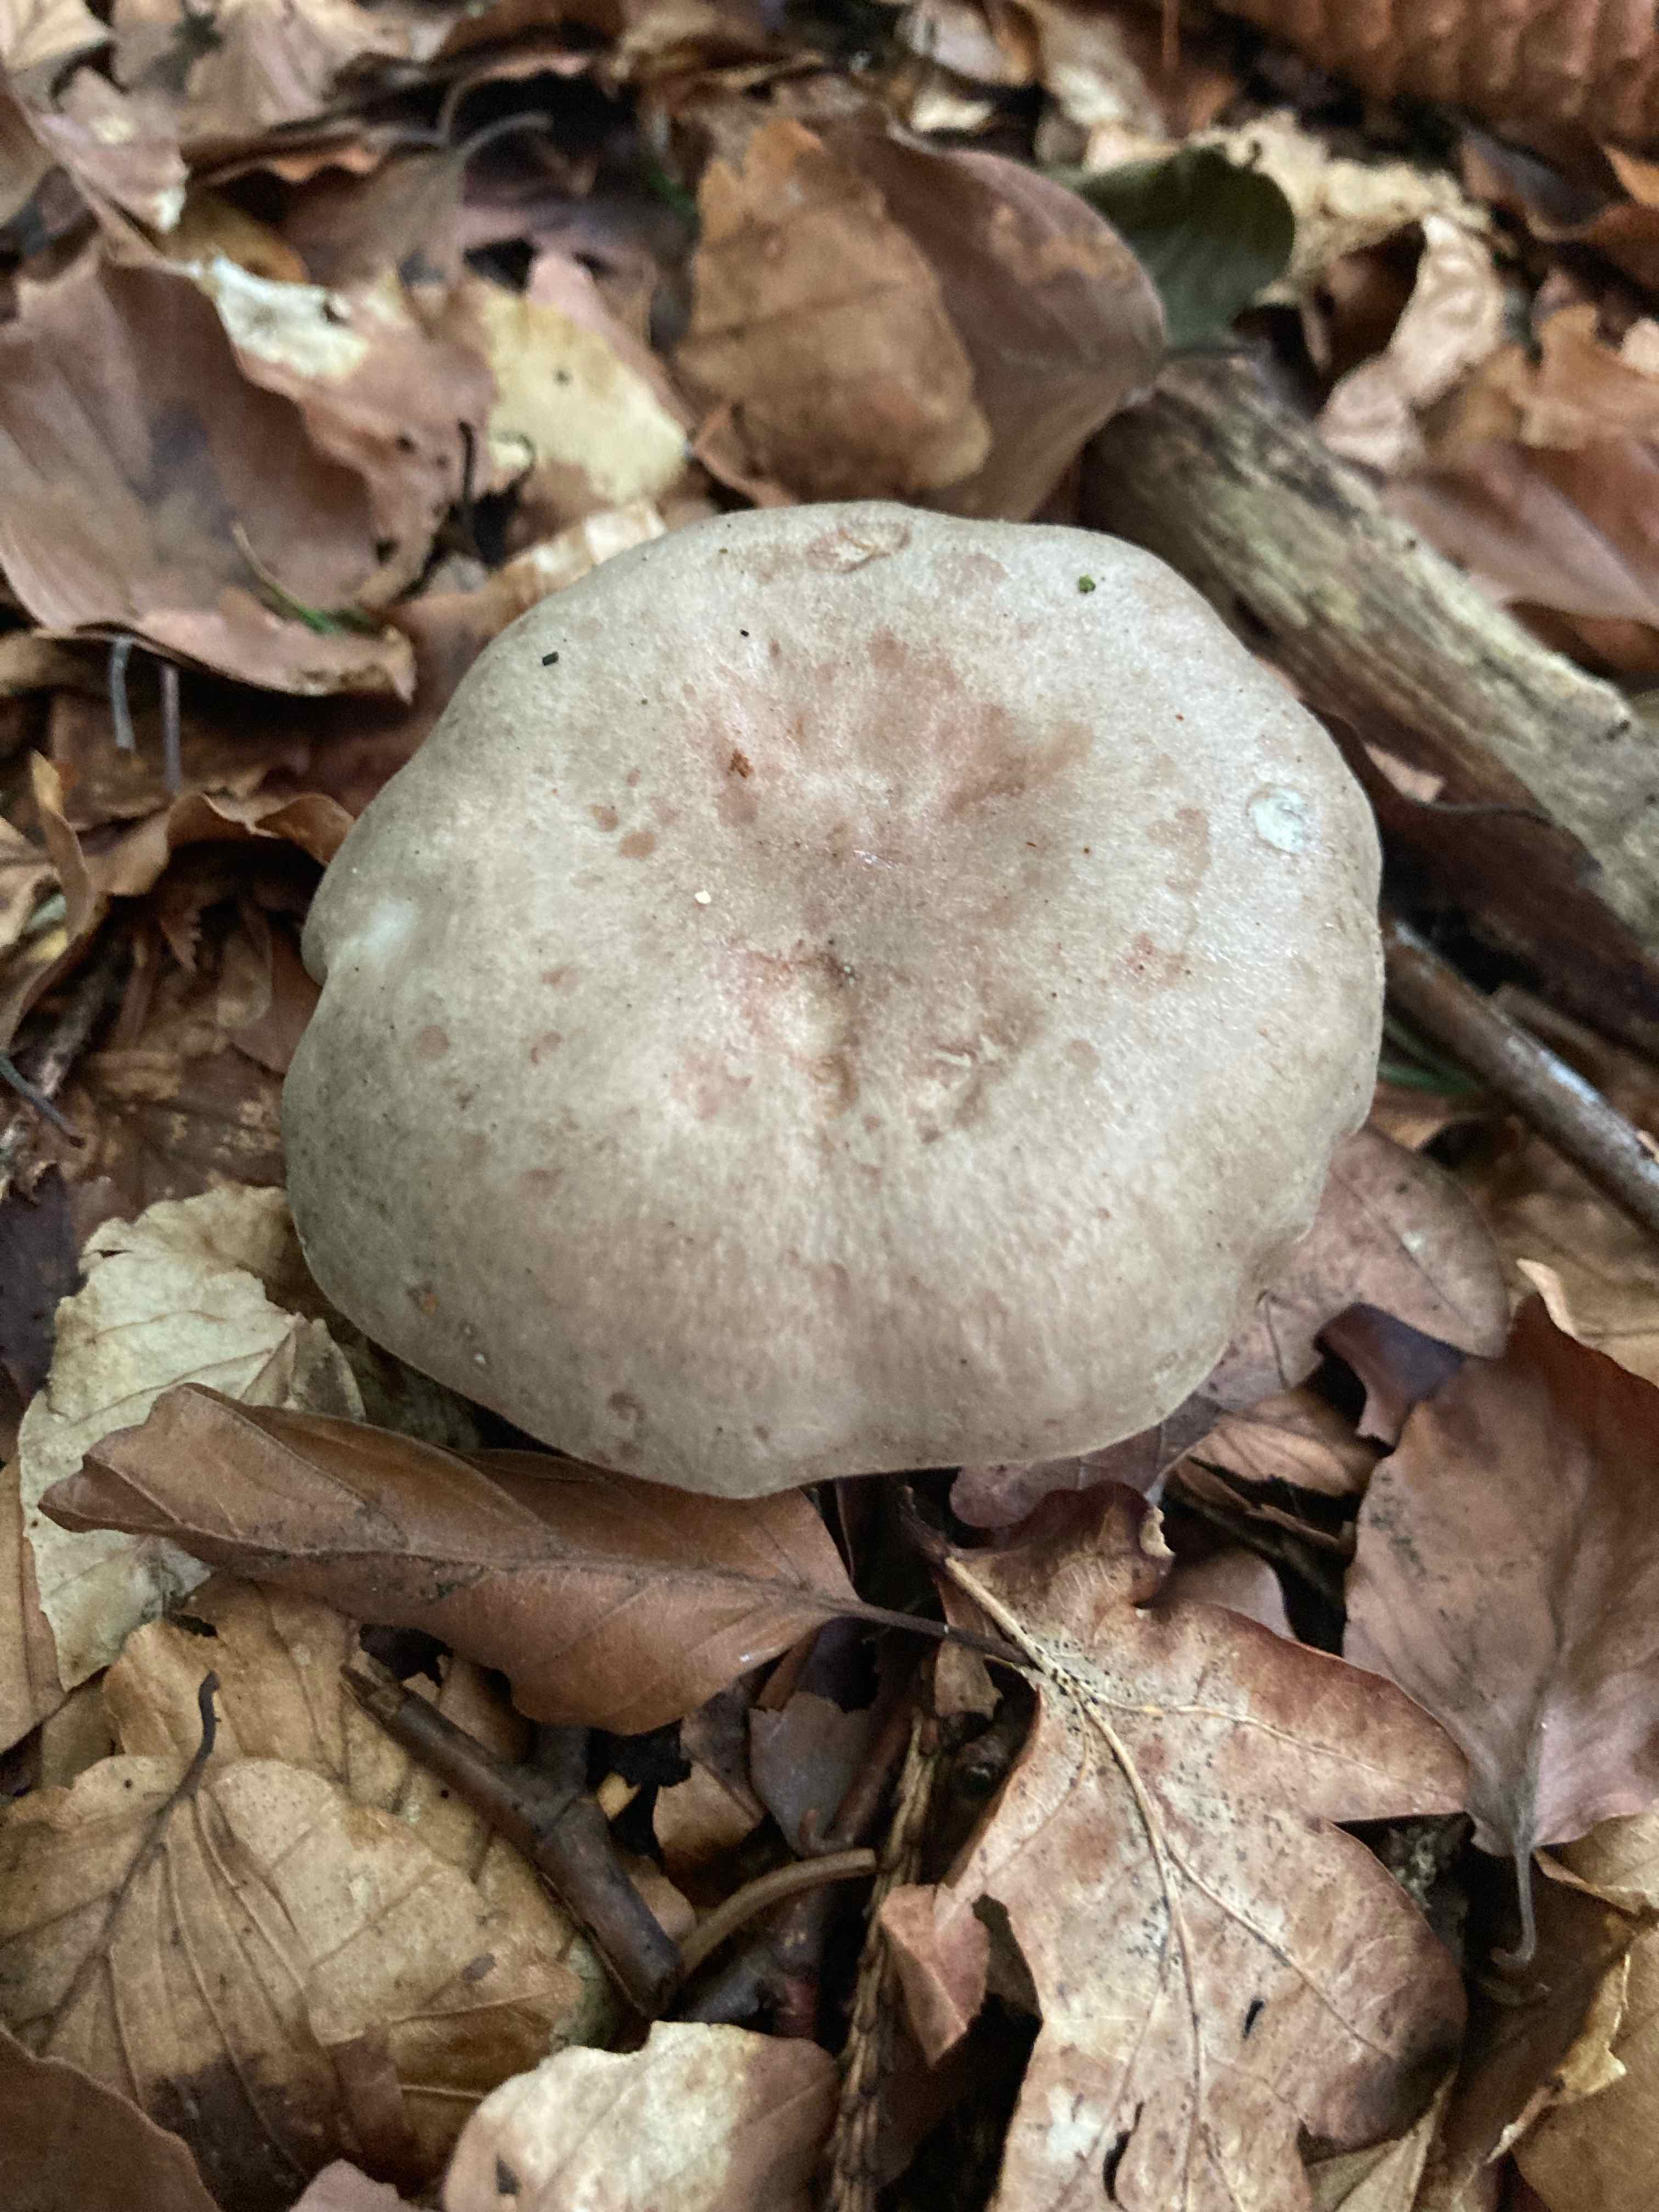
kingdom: Fungi
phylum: Basidiomycota
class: Agaricomycetes
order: Russulales
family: Russulaceae
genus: Lactarius
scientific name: Lactarius blennius
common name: dråbeplettet mælkehat
